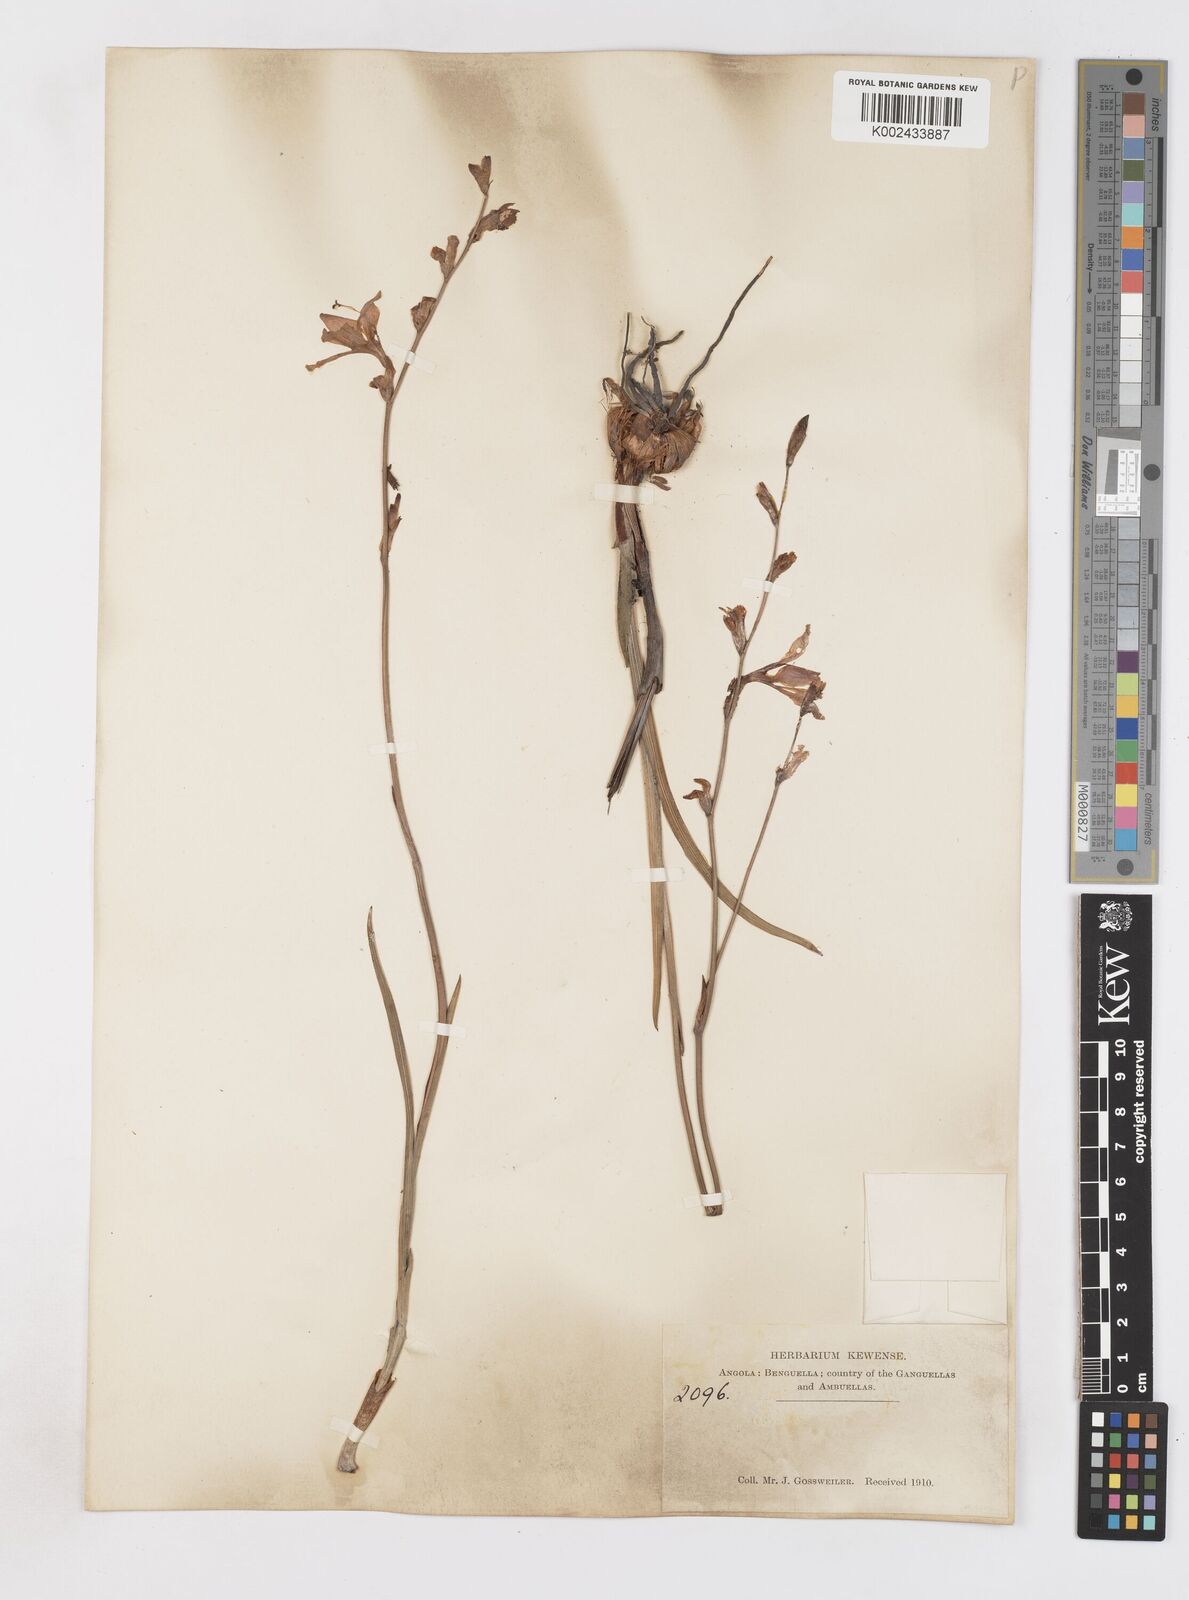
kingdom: Plantae
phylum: Tracheophyta
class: Liliopsida
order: Asparagales
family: Iridaceae
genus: Gladiolus
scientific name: Gladiolus laxiflorus
